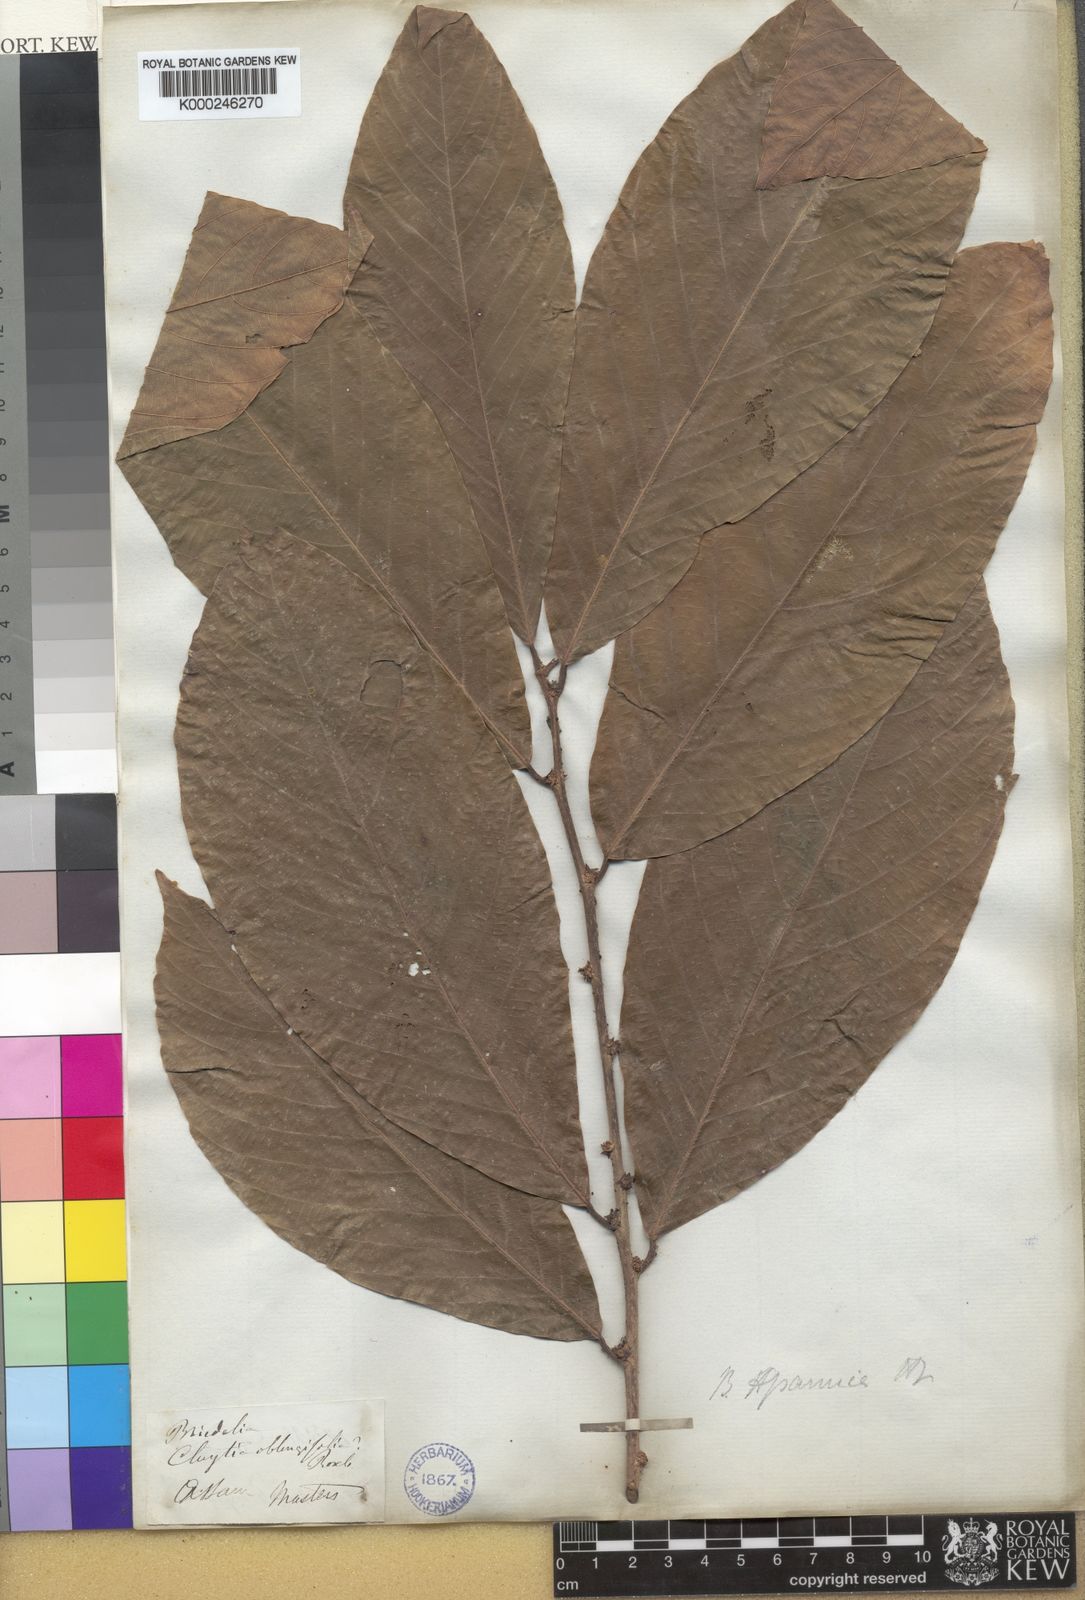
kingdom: Plantae
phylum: Tracheophyta
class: Magnoliopsida
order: Malpighiales
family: Phyllanthaceae
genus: Bridelia
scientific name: Bridelia assamica
